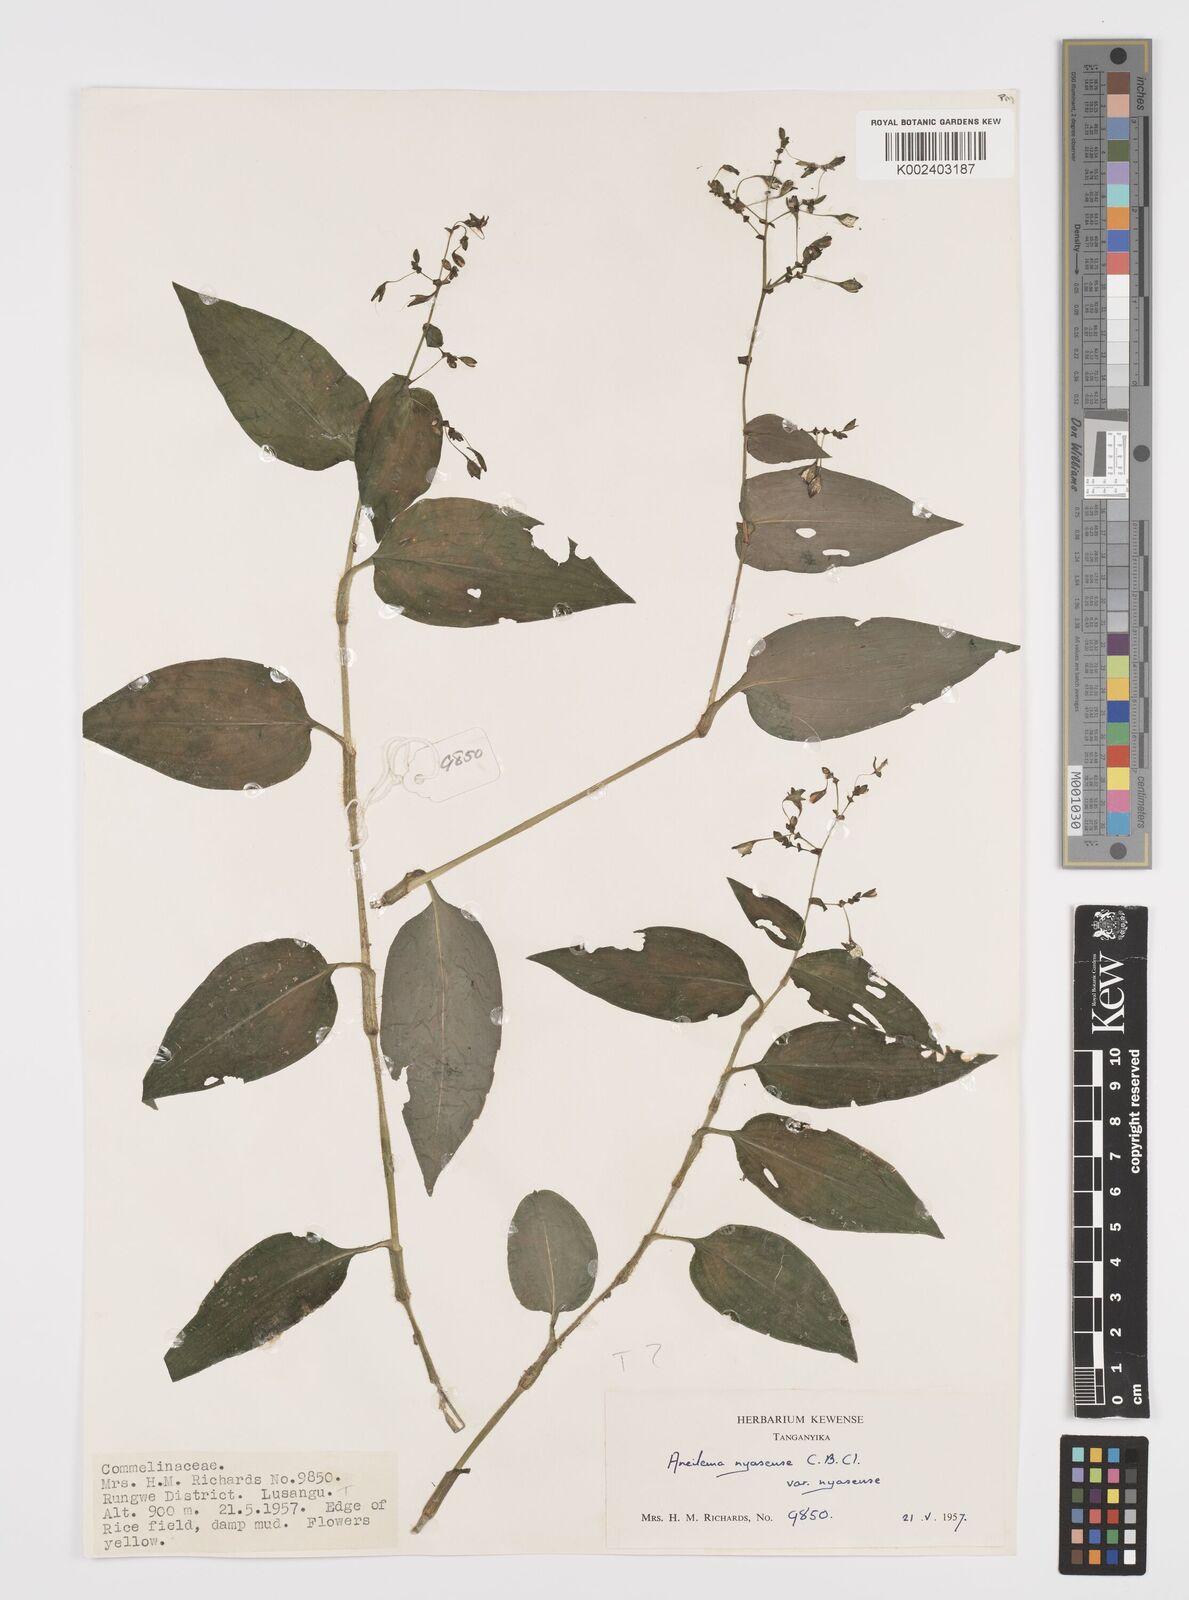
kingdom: Plantae
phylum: Tracheophyta
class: Liliopsida
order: Commelinales
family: Commelinaceae
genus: Aneilema
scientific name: Aneilema nyasense
